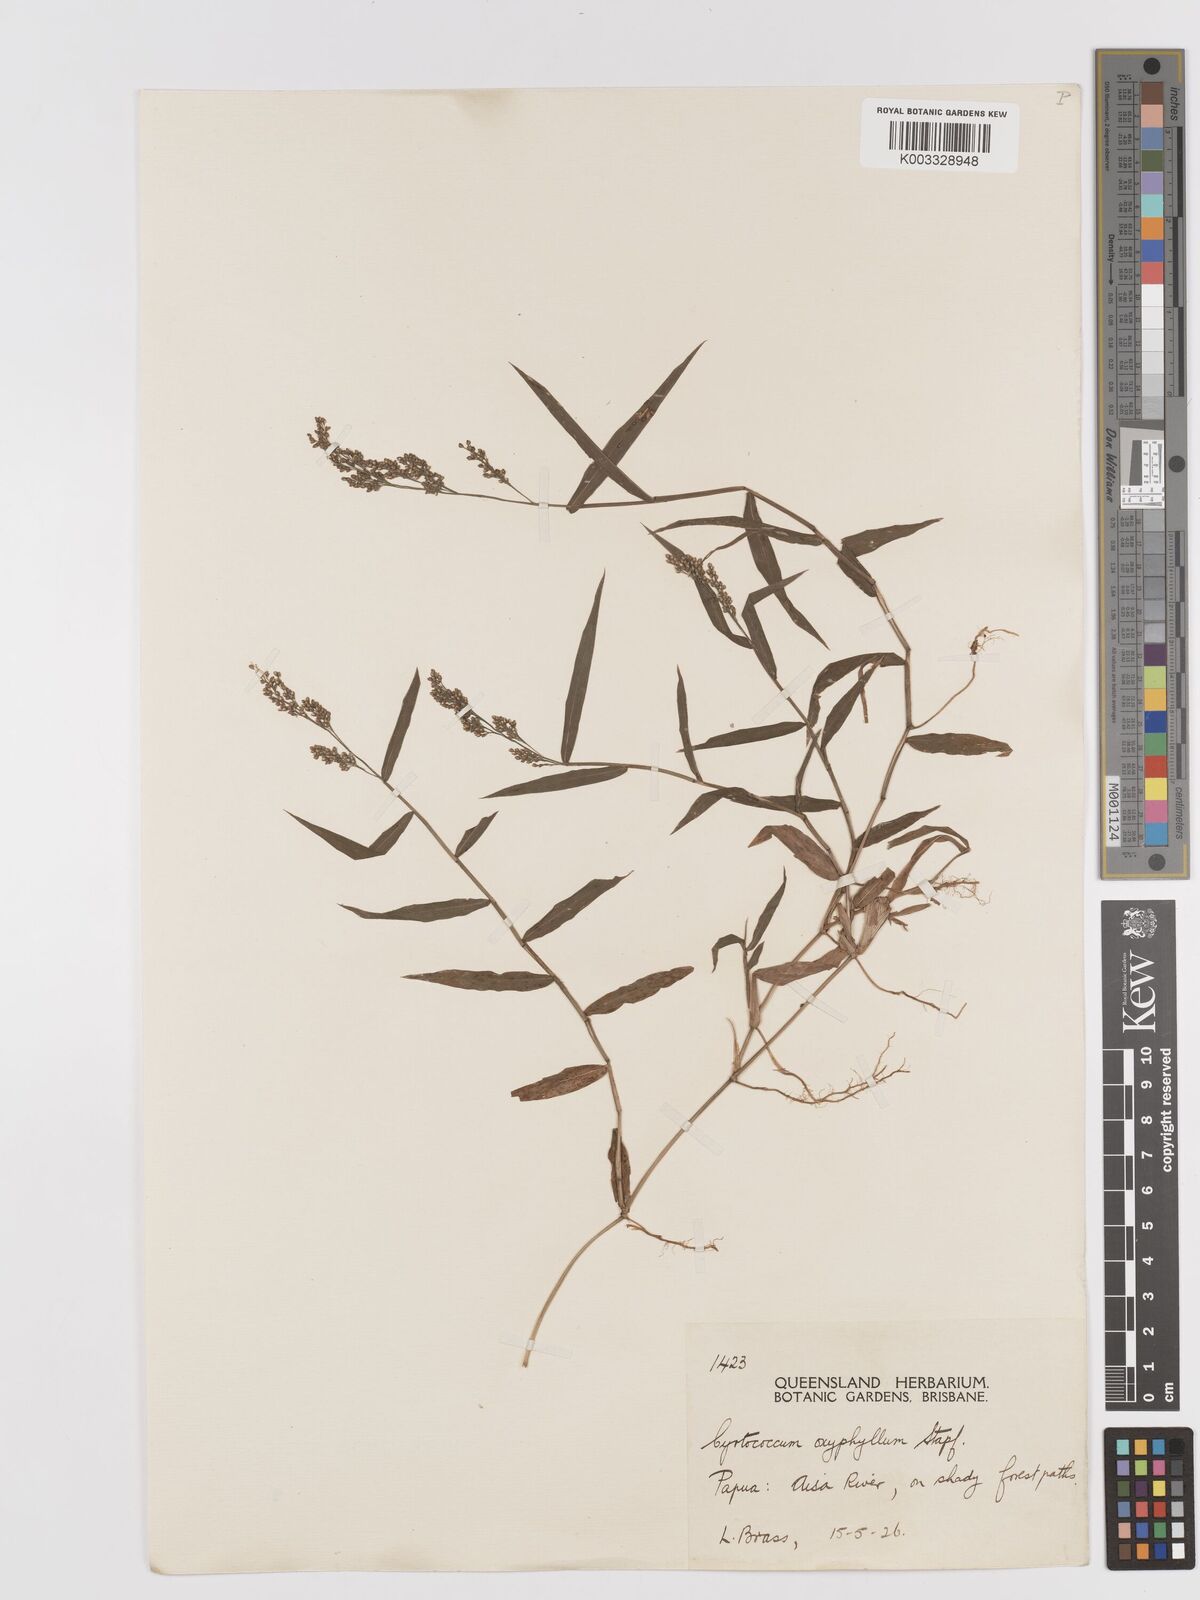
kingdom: Plantae
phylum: Tracheophyta
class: Liliopsida
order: Poales
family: Poaceae
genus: Cyrtococcum
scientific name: Cyrtococcum oxyphyllum
